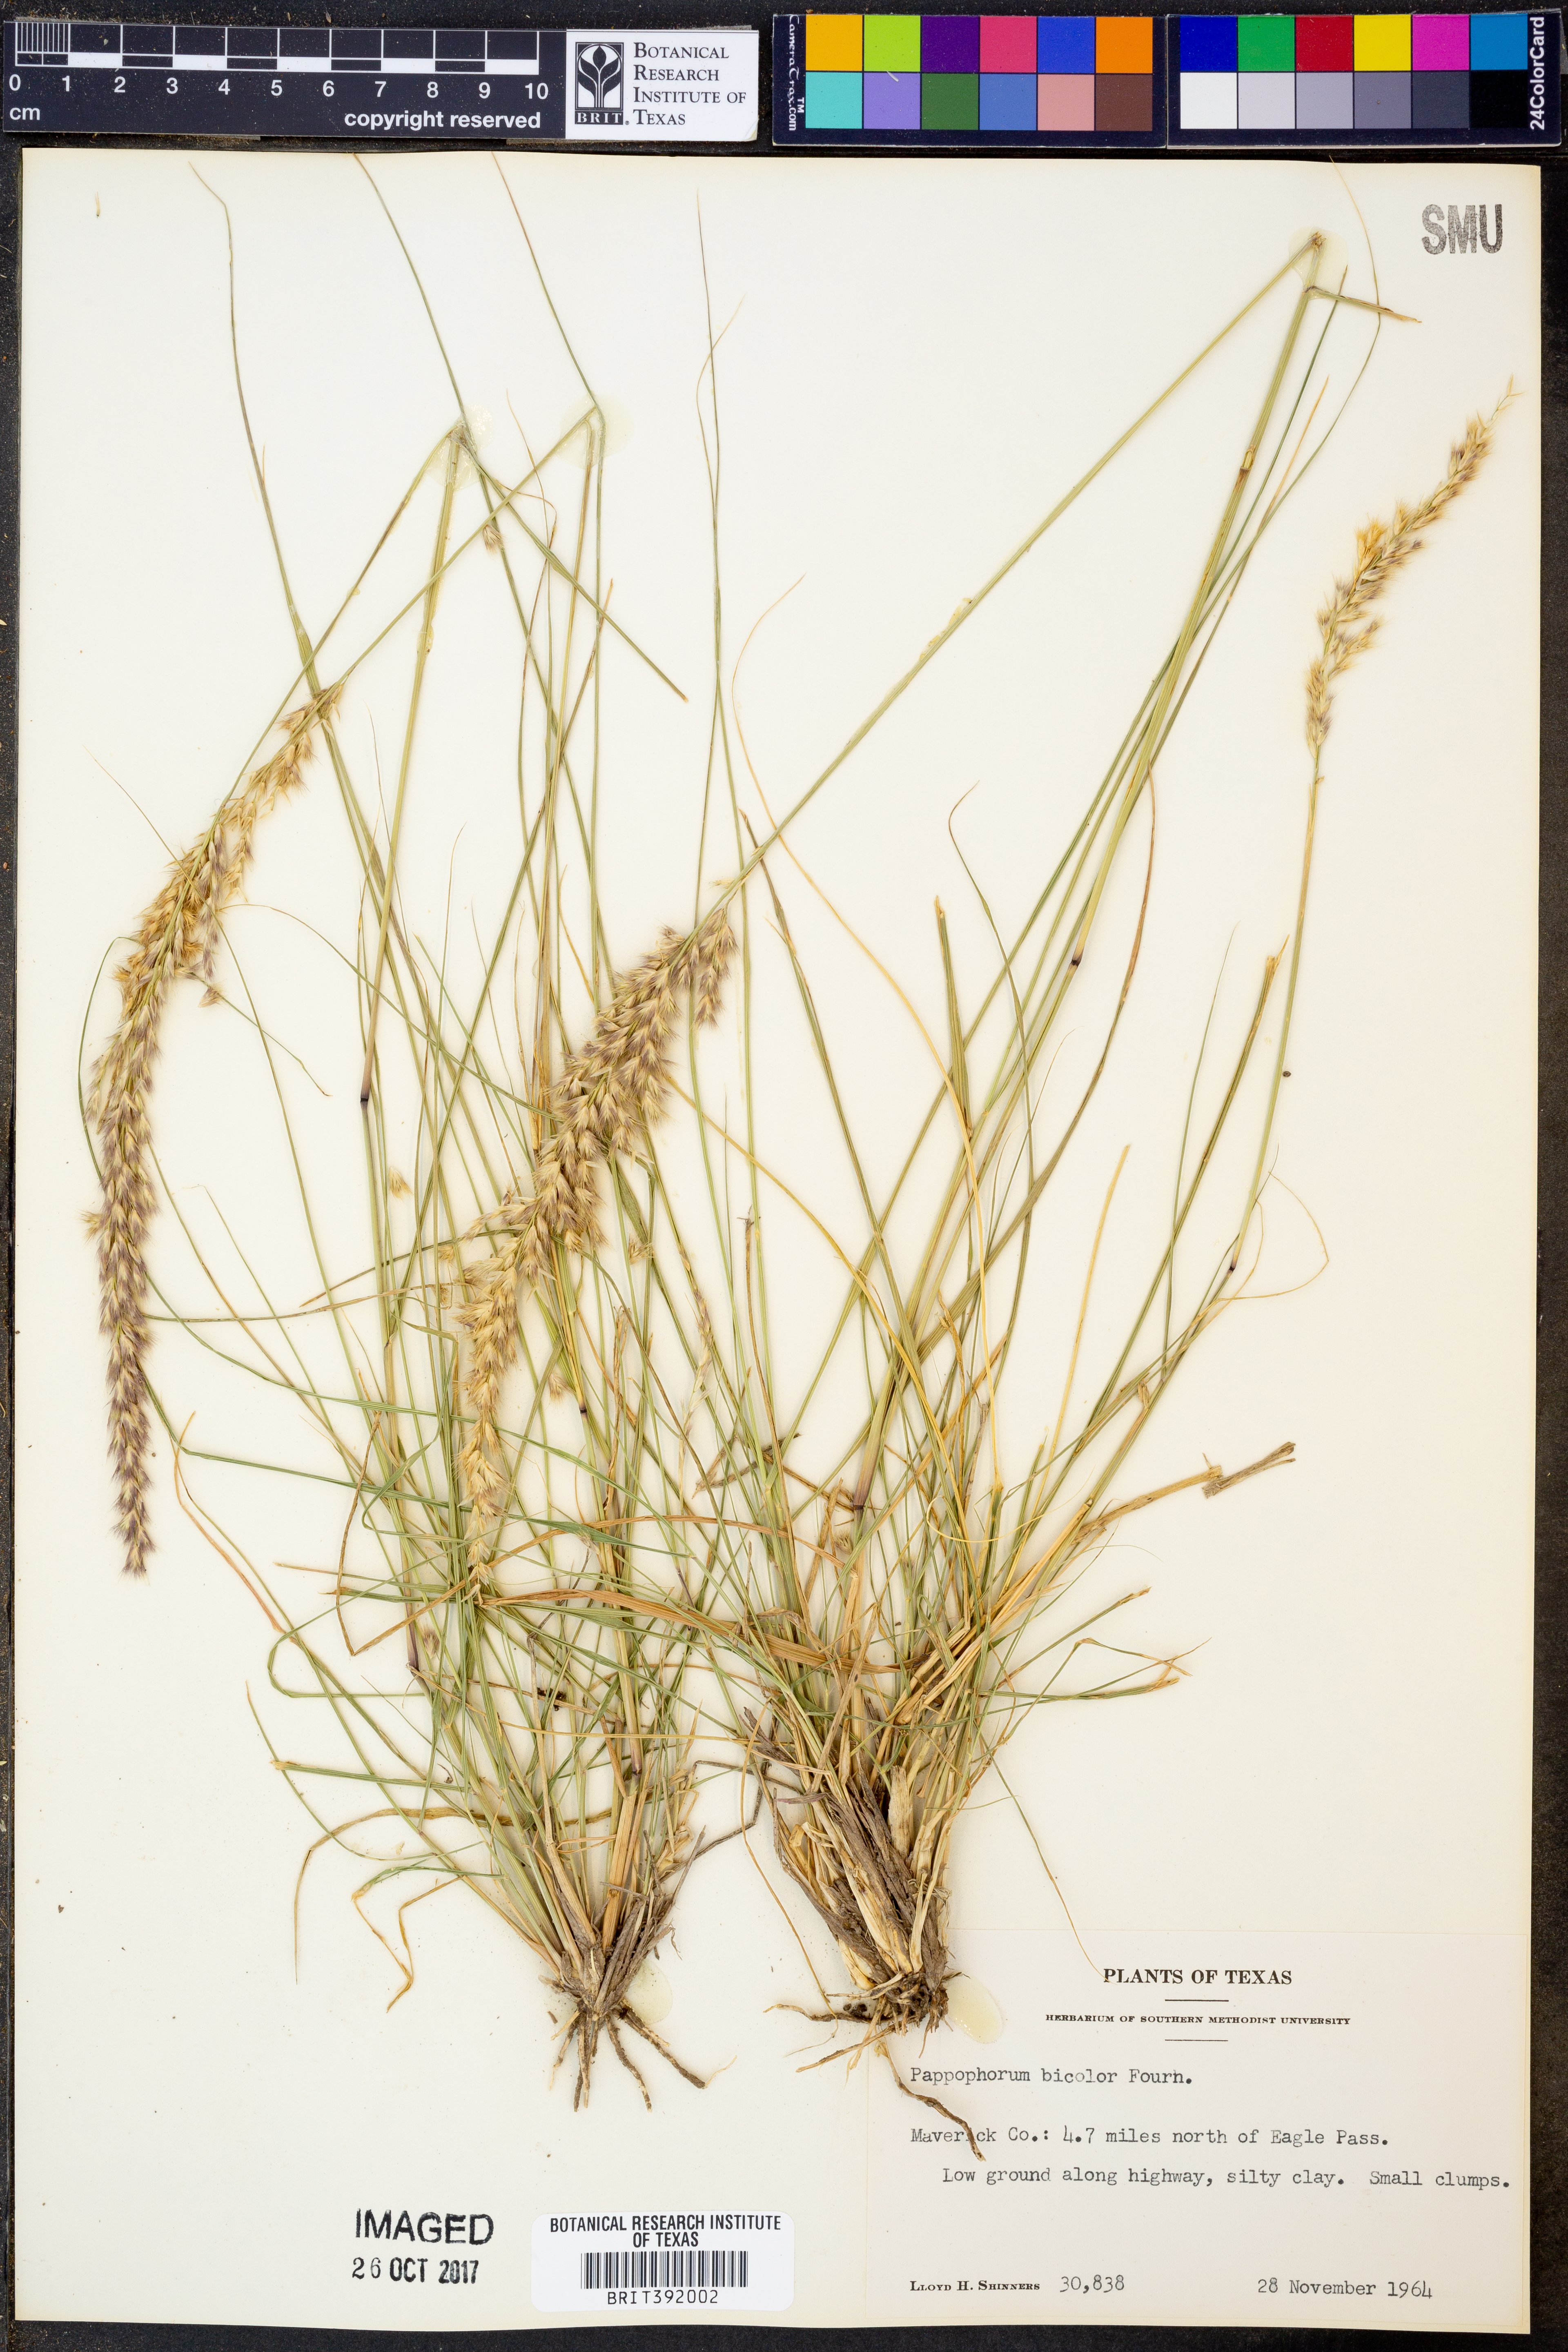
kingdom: Plantae
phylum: Tracheophyta
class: Liliopsida
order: Poales
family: Poaceae
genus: Pappophorum
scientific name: Pappophorum bicolor
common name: Pink pappus grass
